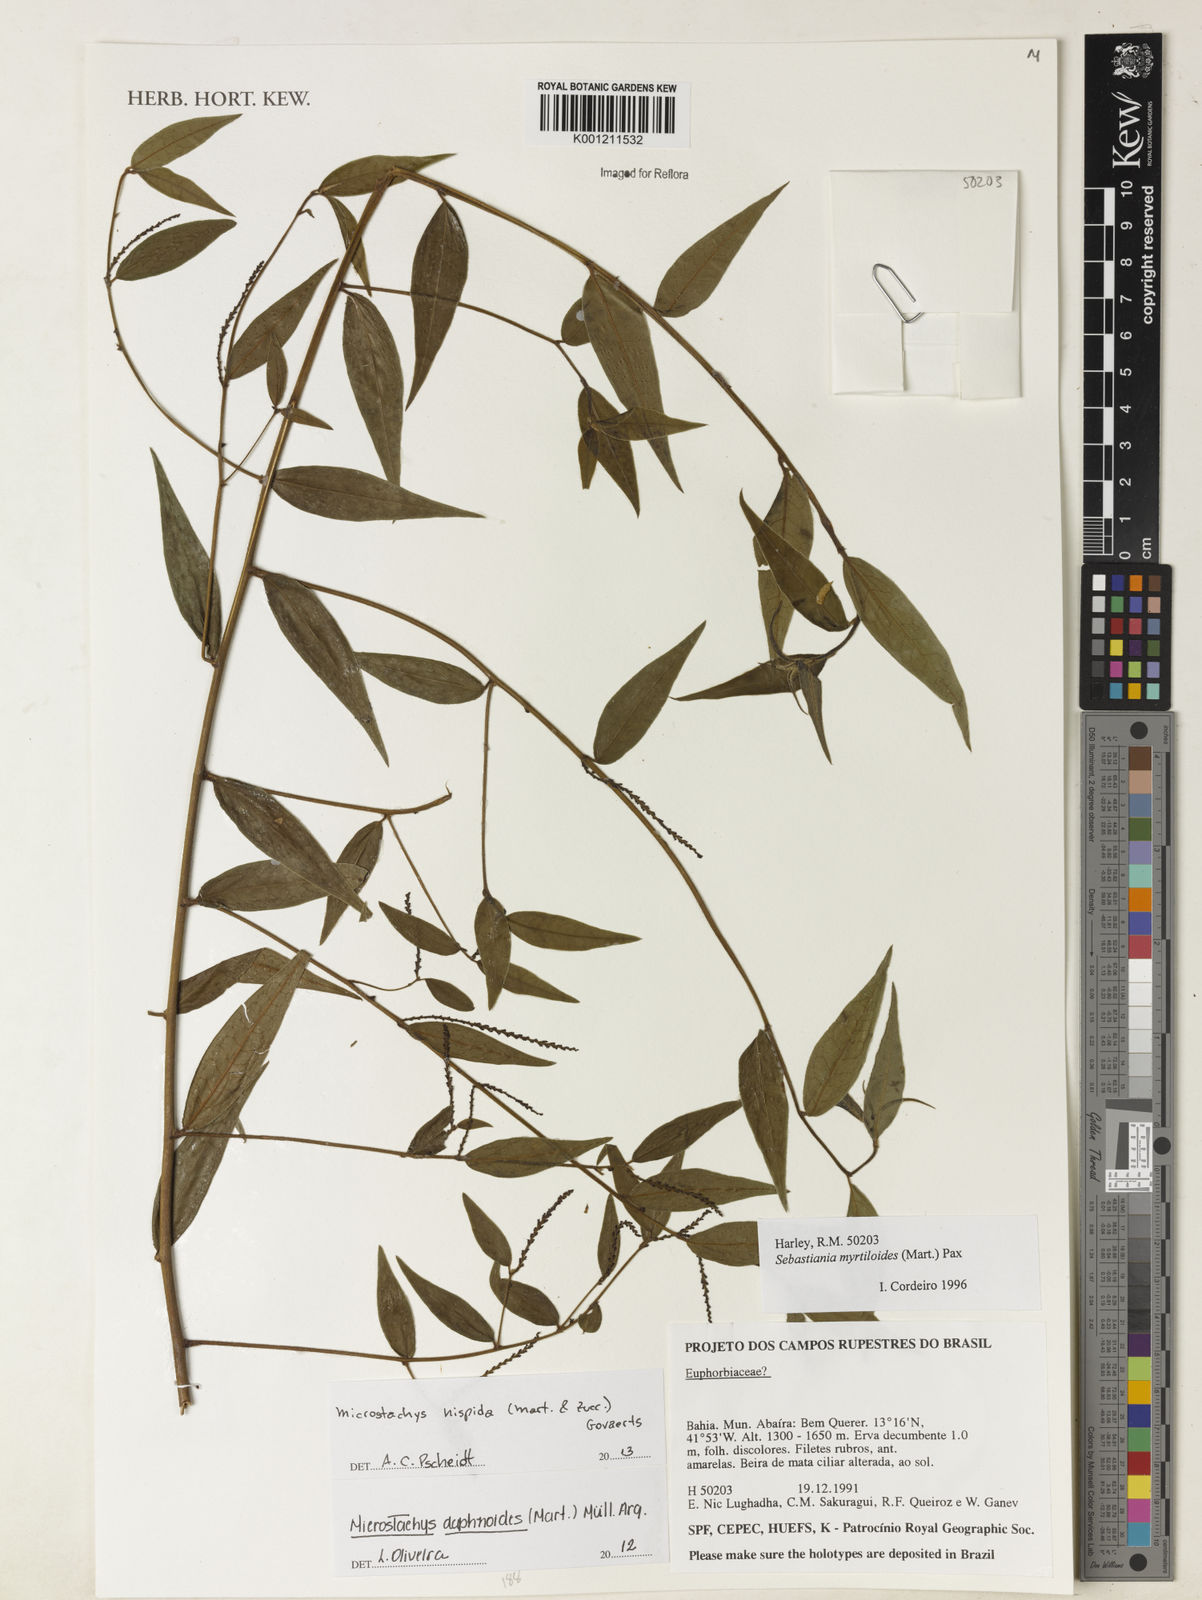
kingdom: Plantae
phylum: Tracheophyta
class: Magnoliopsida
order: Malpighiales
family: Euphorbiaceae
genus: Microstachys
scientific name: Microstachys hispida
